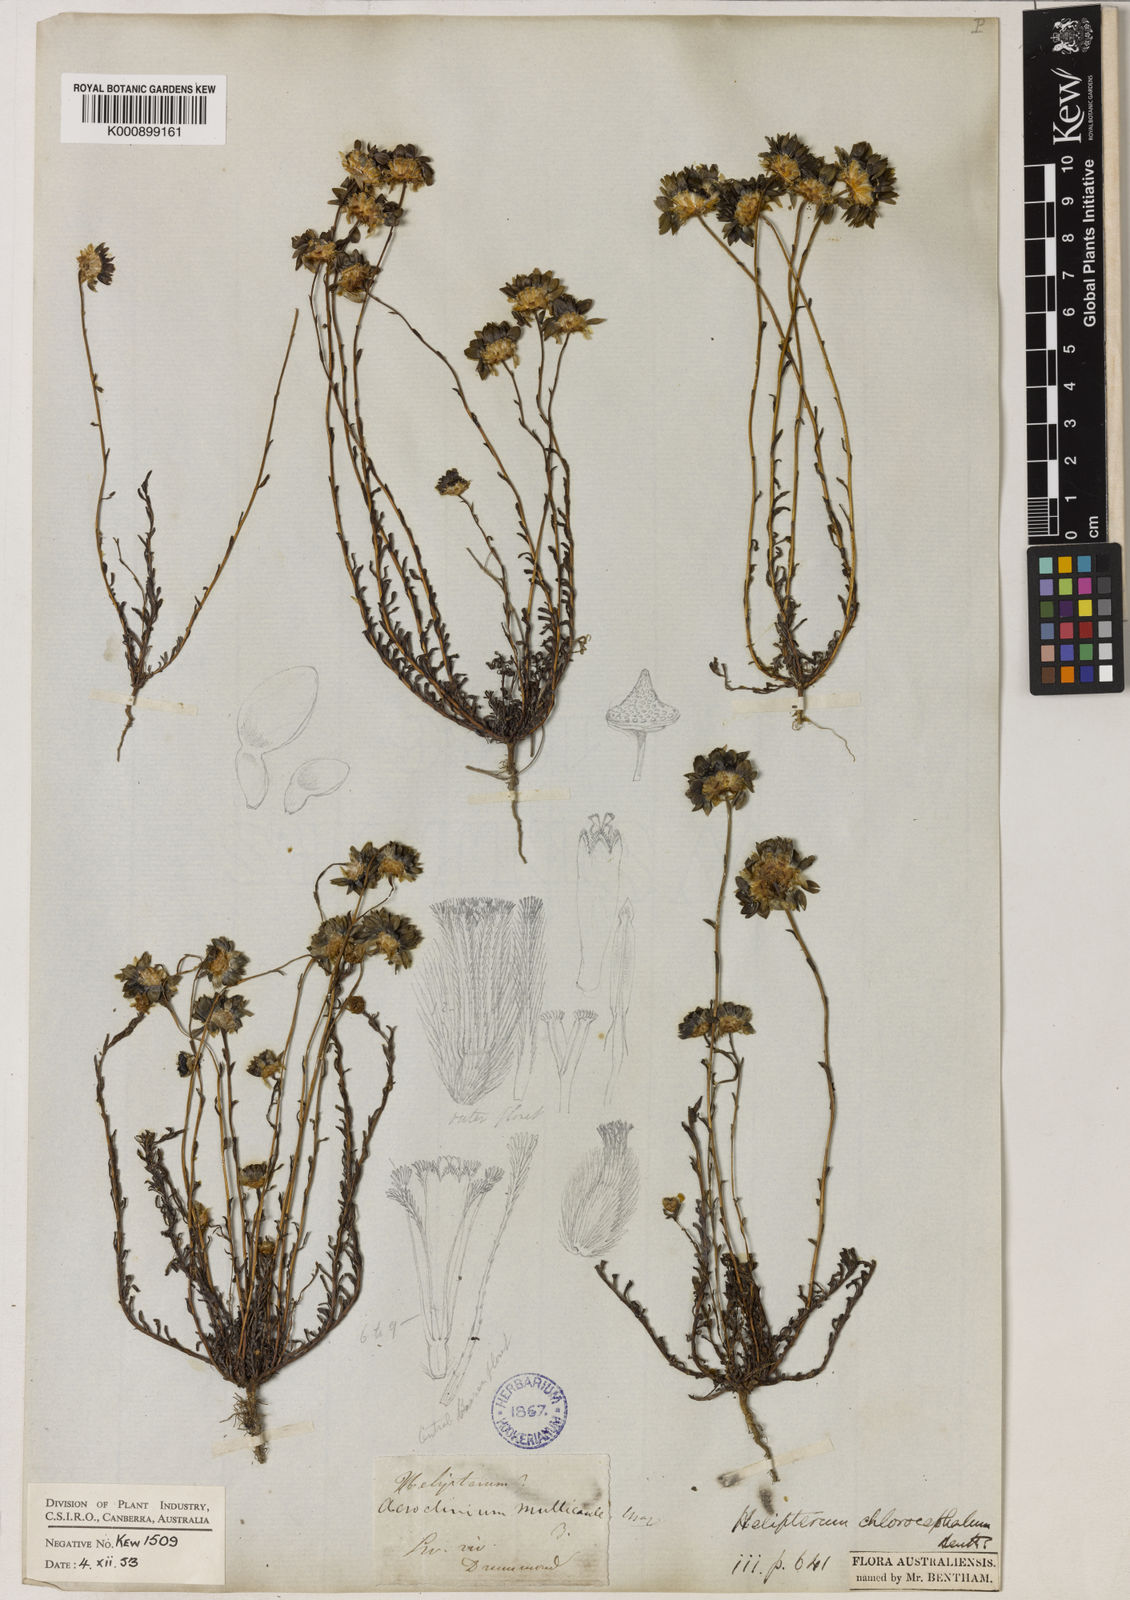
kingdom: Plantae
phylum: Tracheophyta
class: Magnoliopsida
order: Asterales
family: Asteraceae
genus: Rhodanthe
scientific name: Rhodanthe chlorocephala
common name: Rosy sunray
